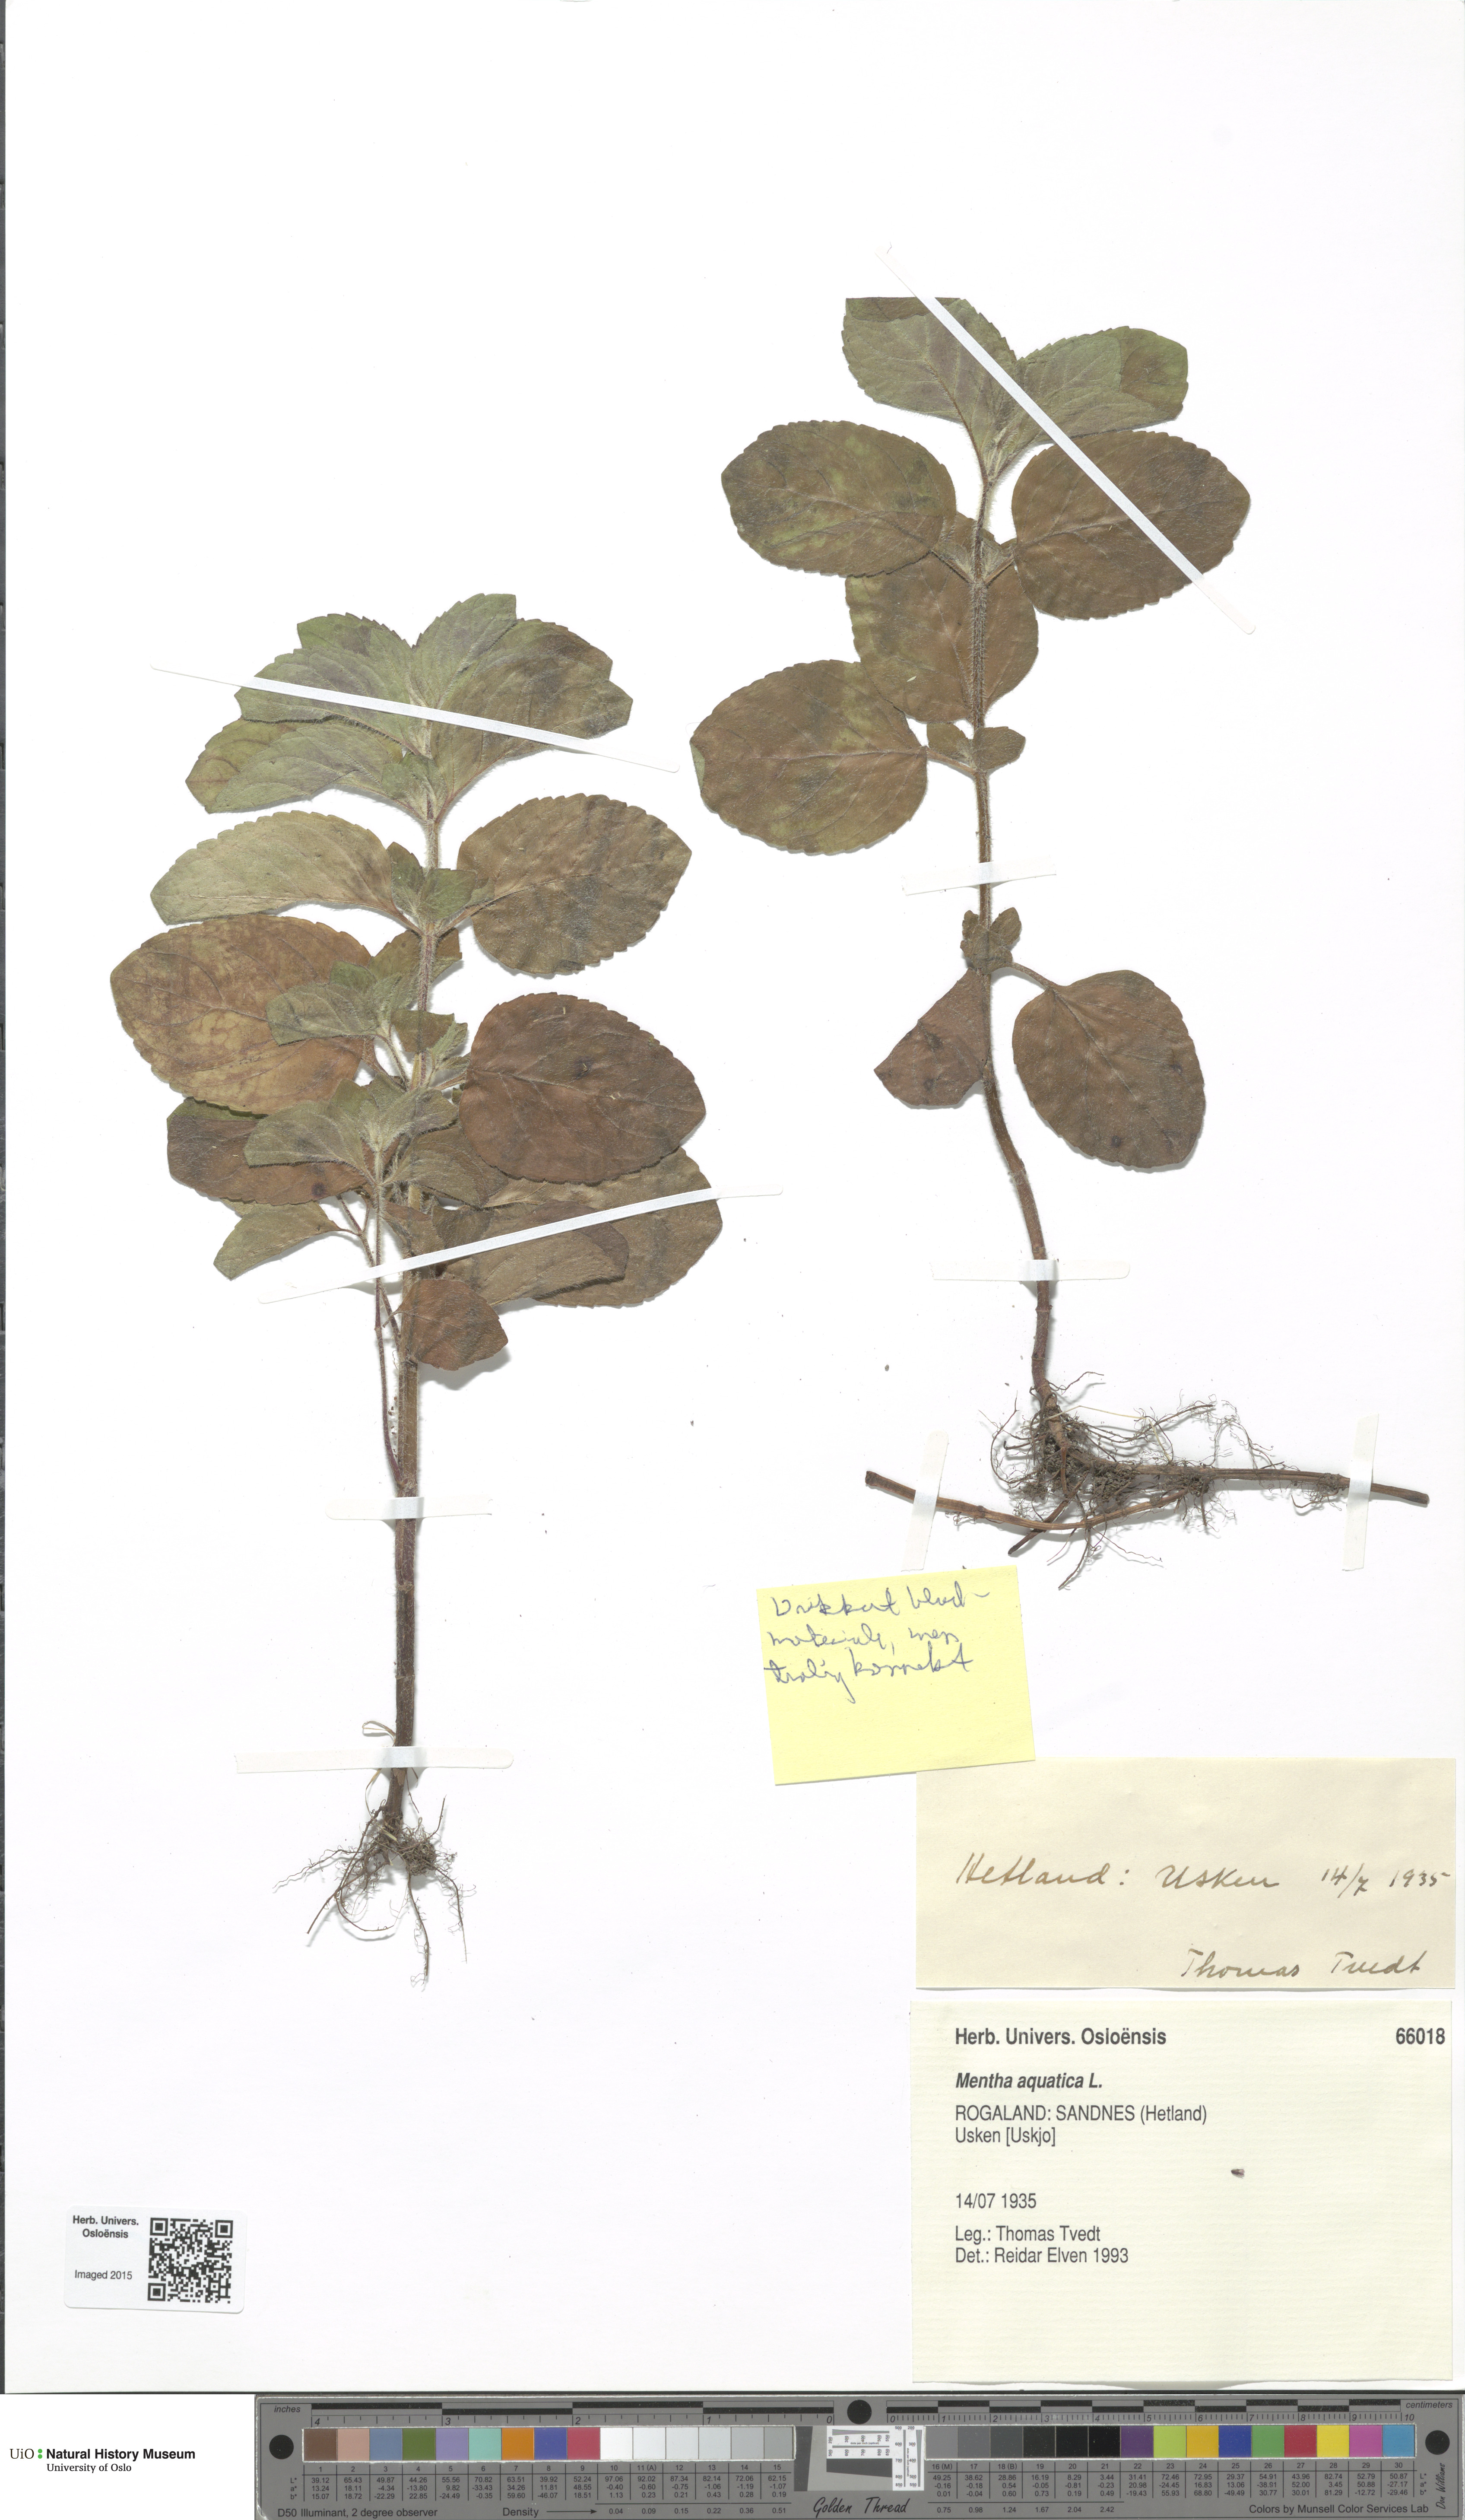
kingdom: Plantae
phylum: Tracheophyta
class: Magnoliopsida
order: Lamiales
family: Lamiaceae
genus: Mentha
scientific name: Mentha aquatica
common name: Water mint
